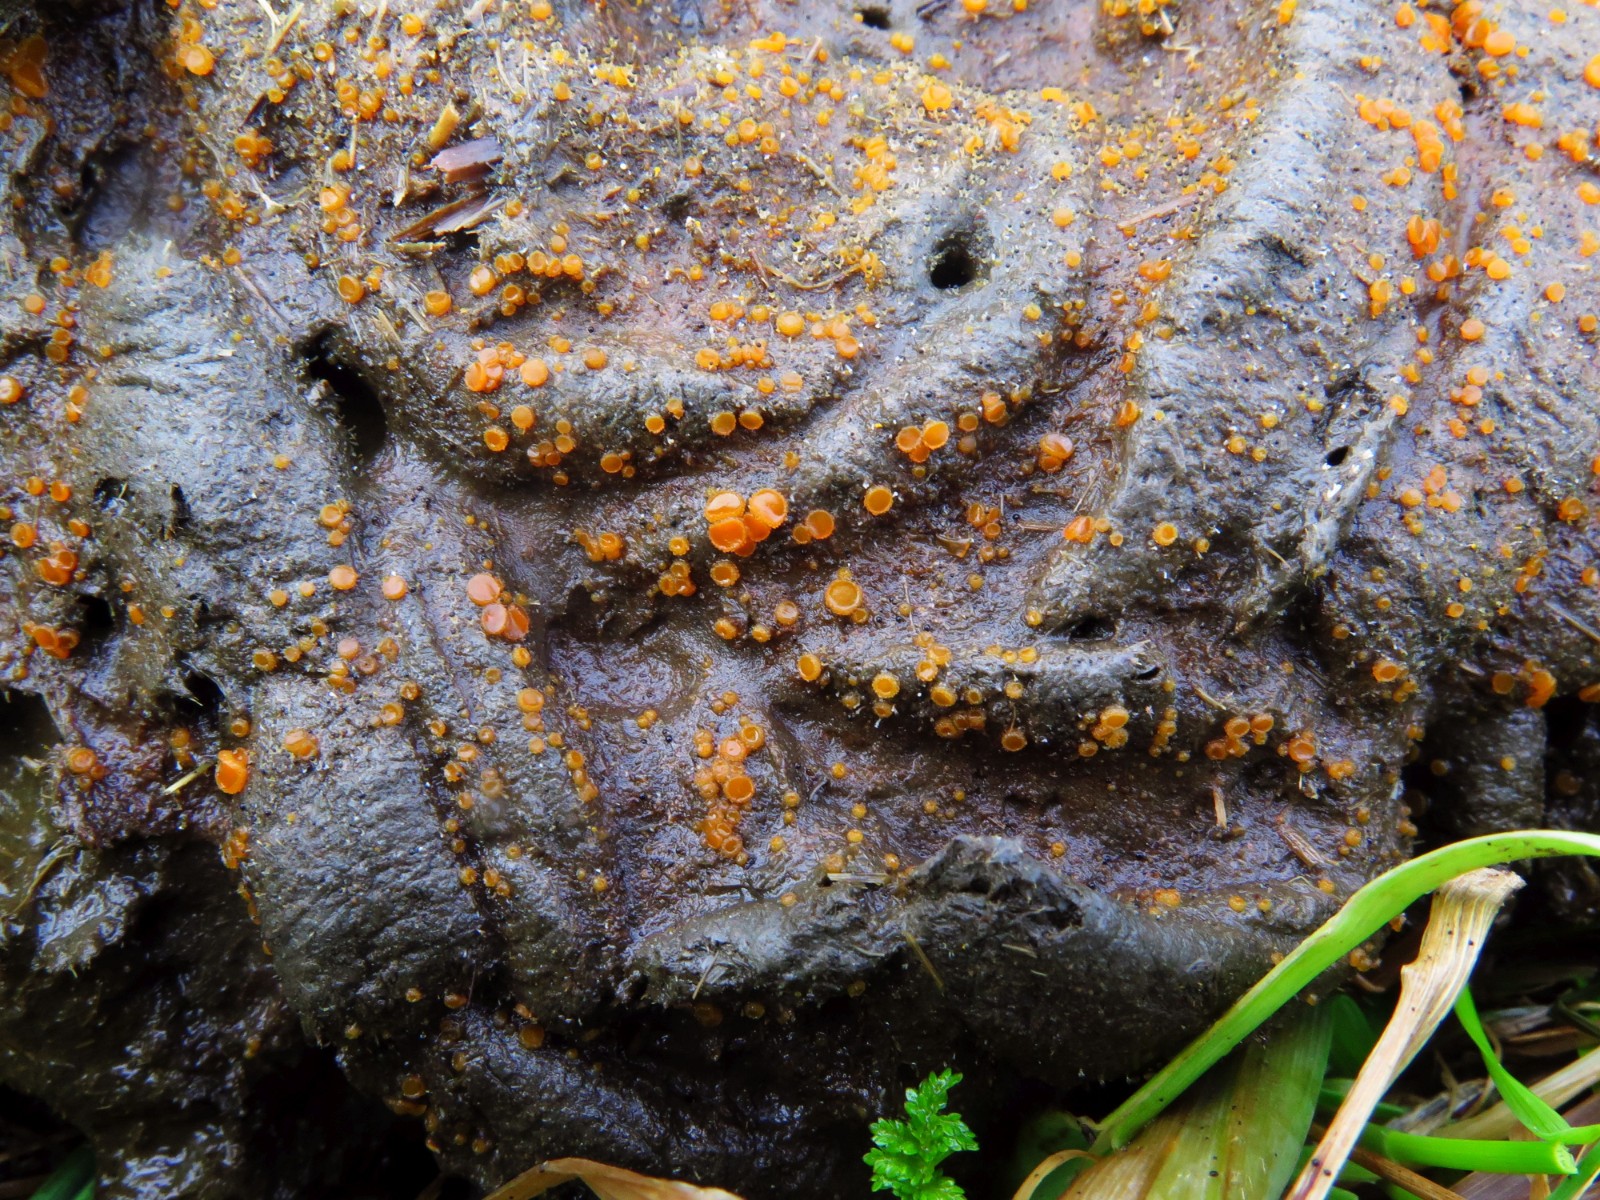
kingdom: Fungi
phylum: Ascomycota
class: Pezizomycetes
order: Pezizales
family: Pyronemataceae
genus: Cheilymenia
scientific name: Cheilymenia granulata
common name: møgbæger
